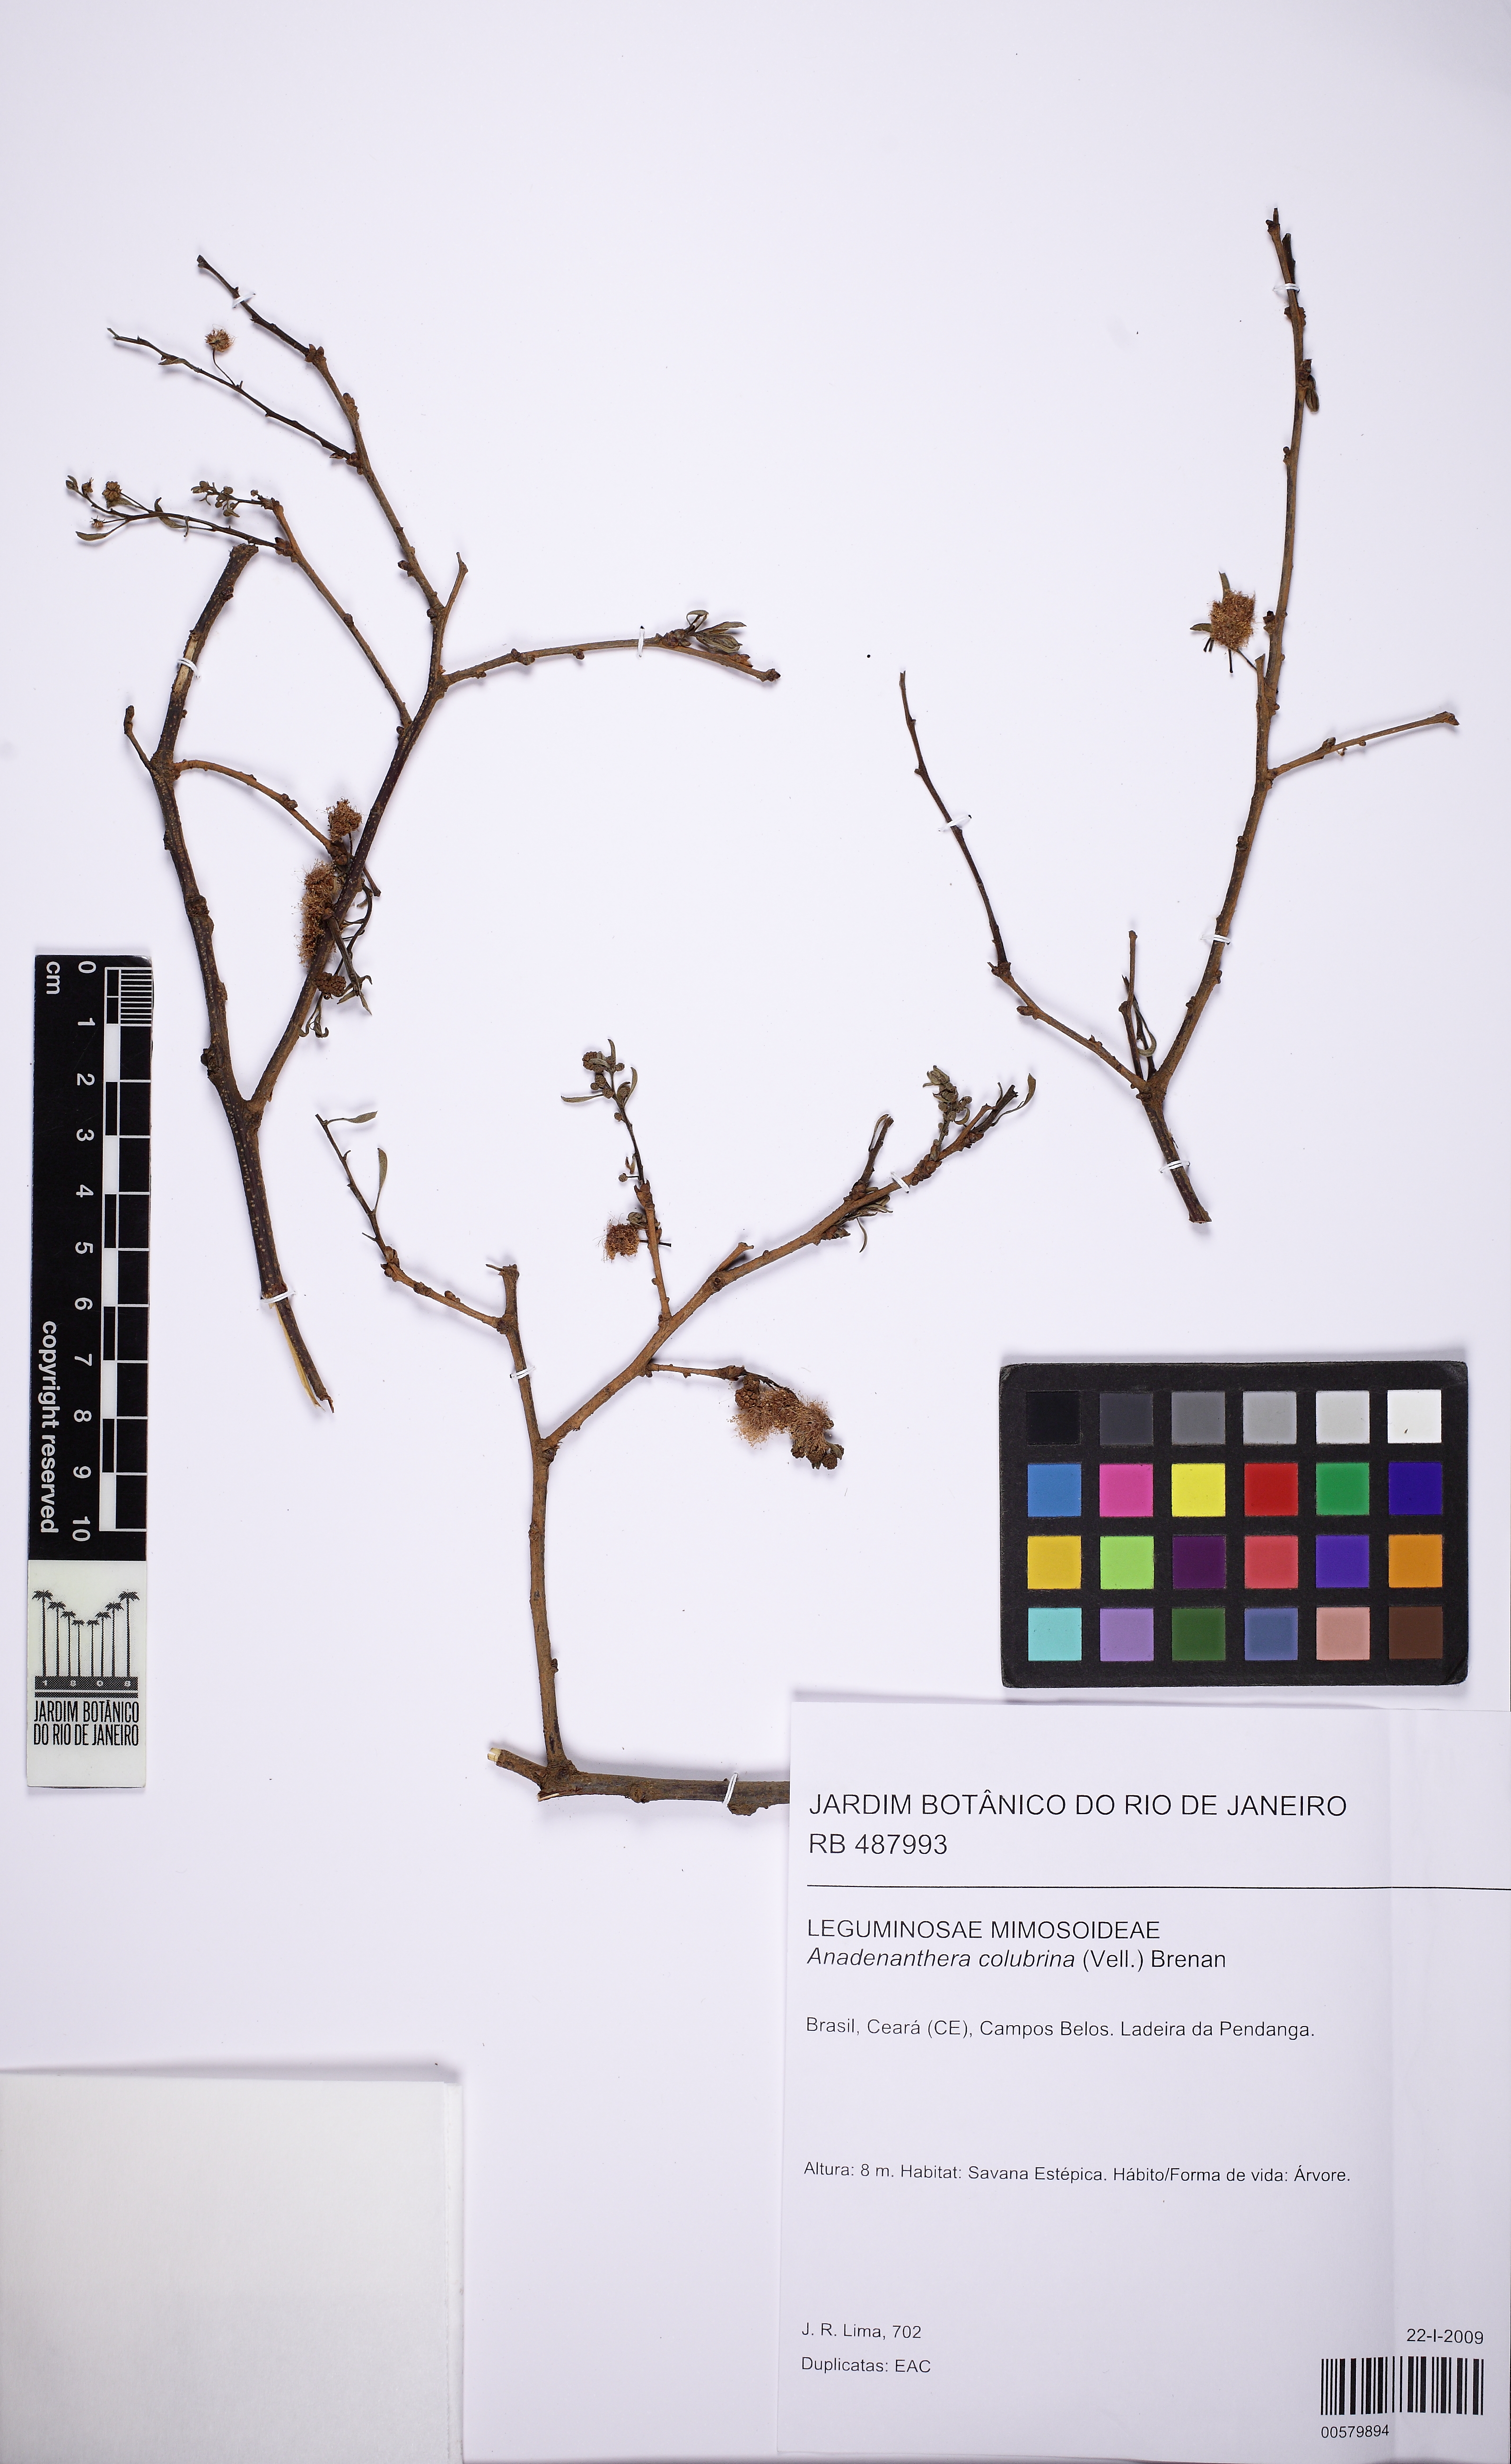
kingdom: Plantae
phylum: Tracheophyta
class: Magnoliopsida
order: Fabales
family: Fabaceae
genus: Anadenanthera
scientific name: Anadenanthera colubrina
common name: Curupay
